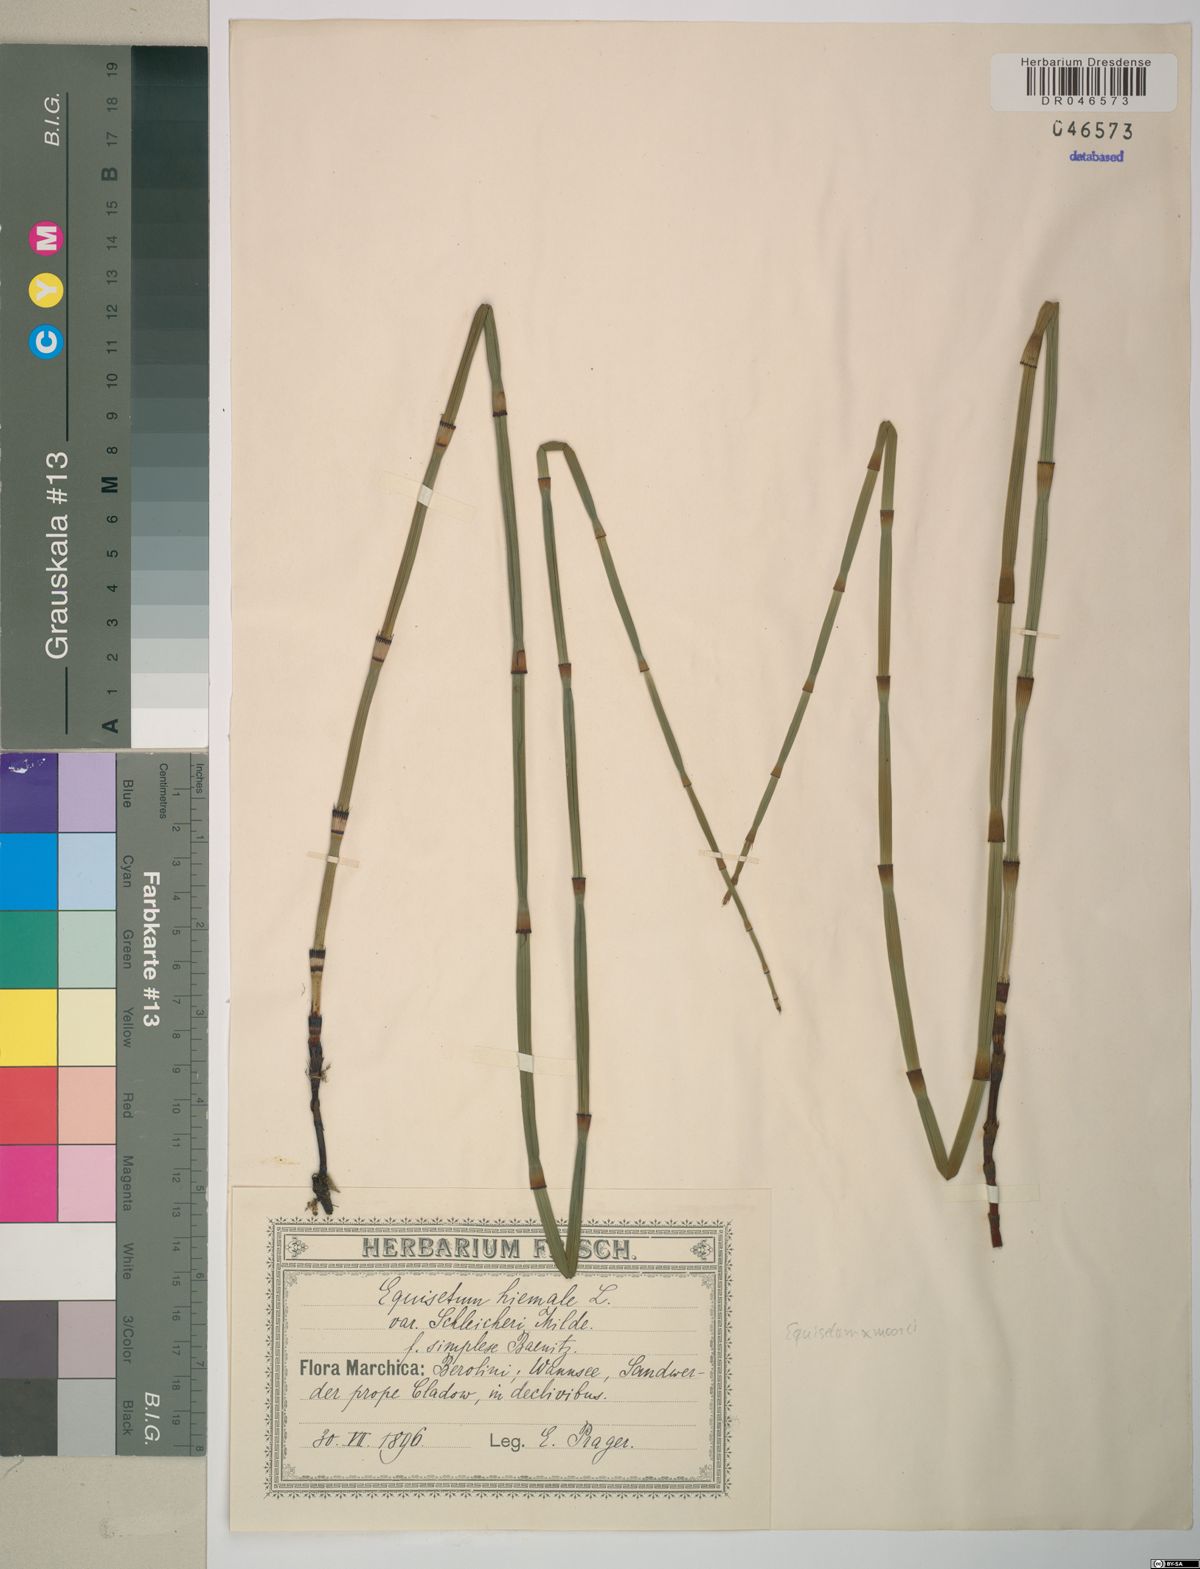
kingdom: Plantae
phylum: Tracheophyta
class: Polypodiopsida
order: Equisetales
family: Equisetaceae
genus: Equisetum
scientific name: Equisetum moorei
